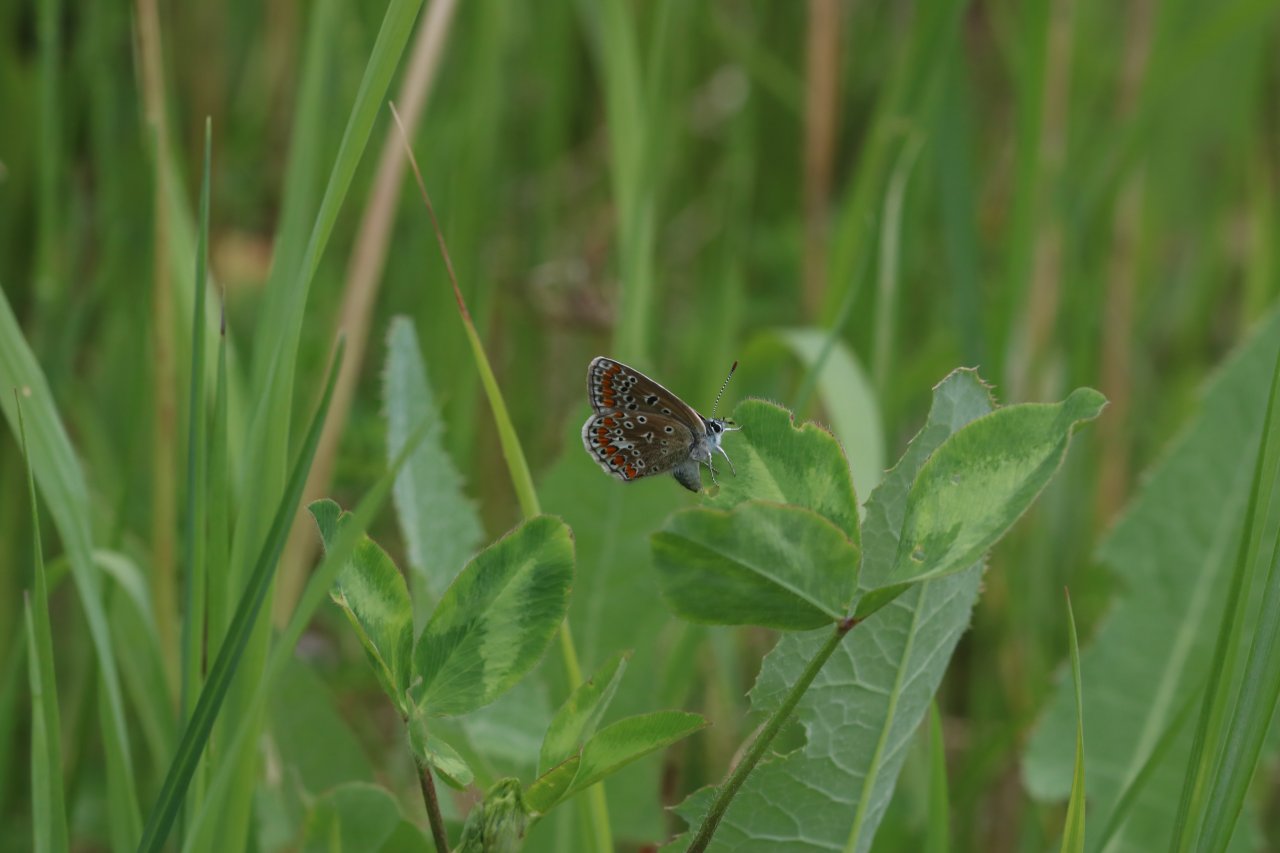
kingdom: Animalia
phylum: Arthropoda
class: Insecta
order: Lepidoptera
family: Lycaenidae
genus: Polyommatus
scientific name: Polyommatus icarus
